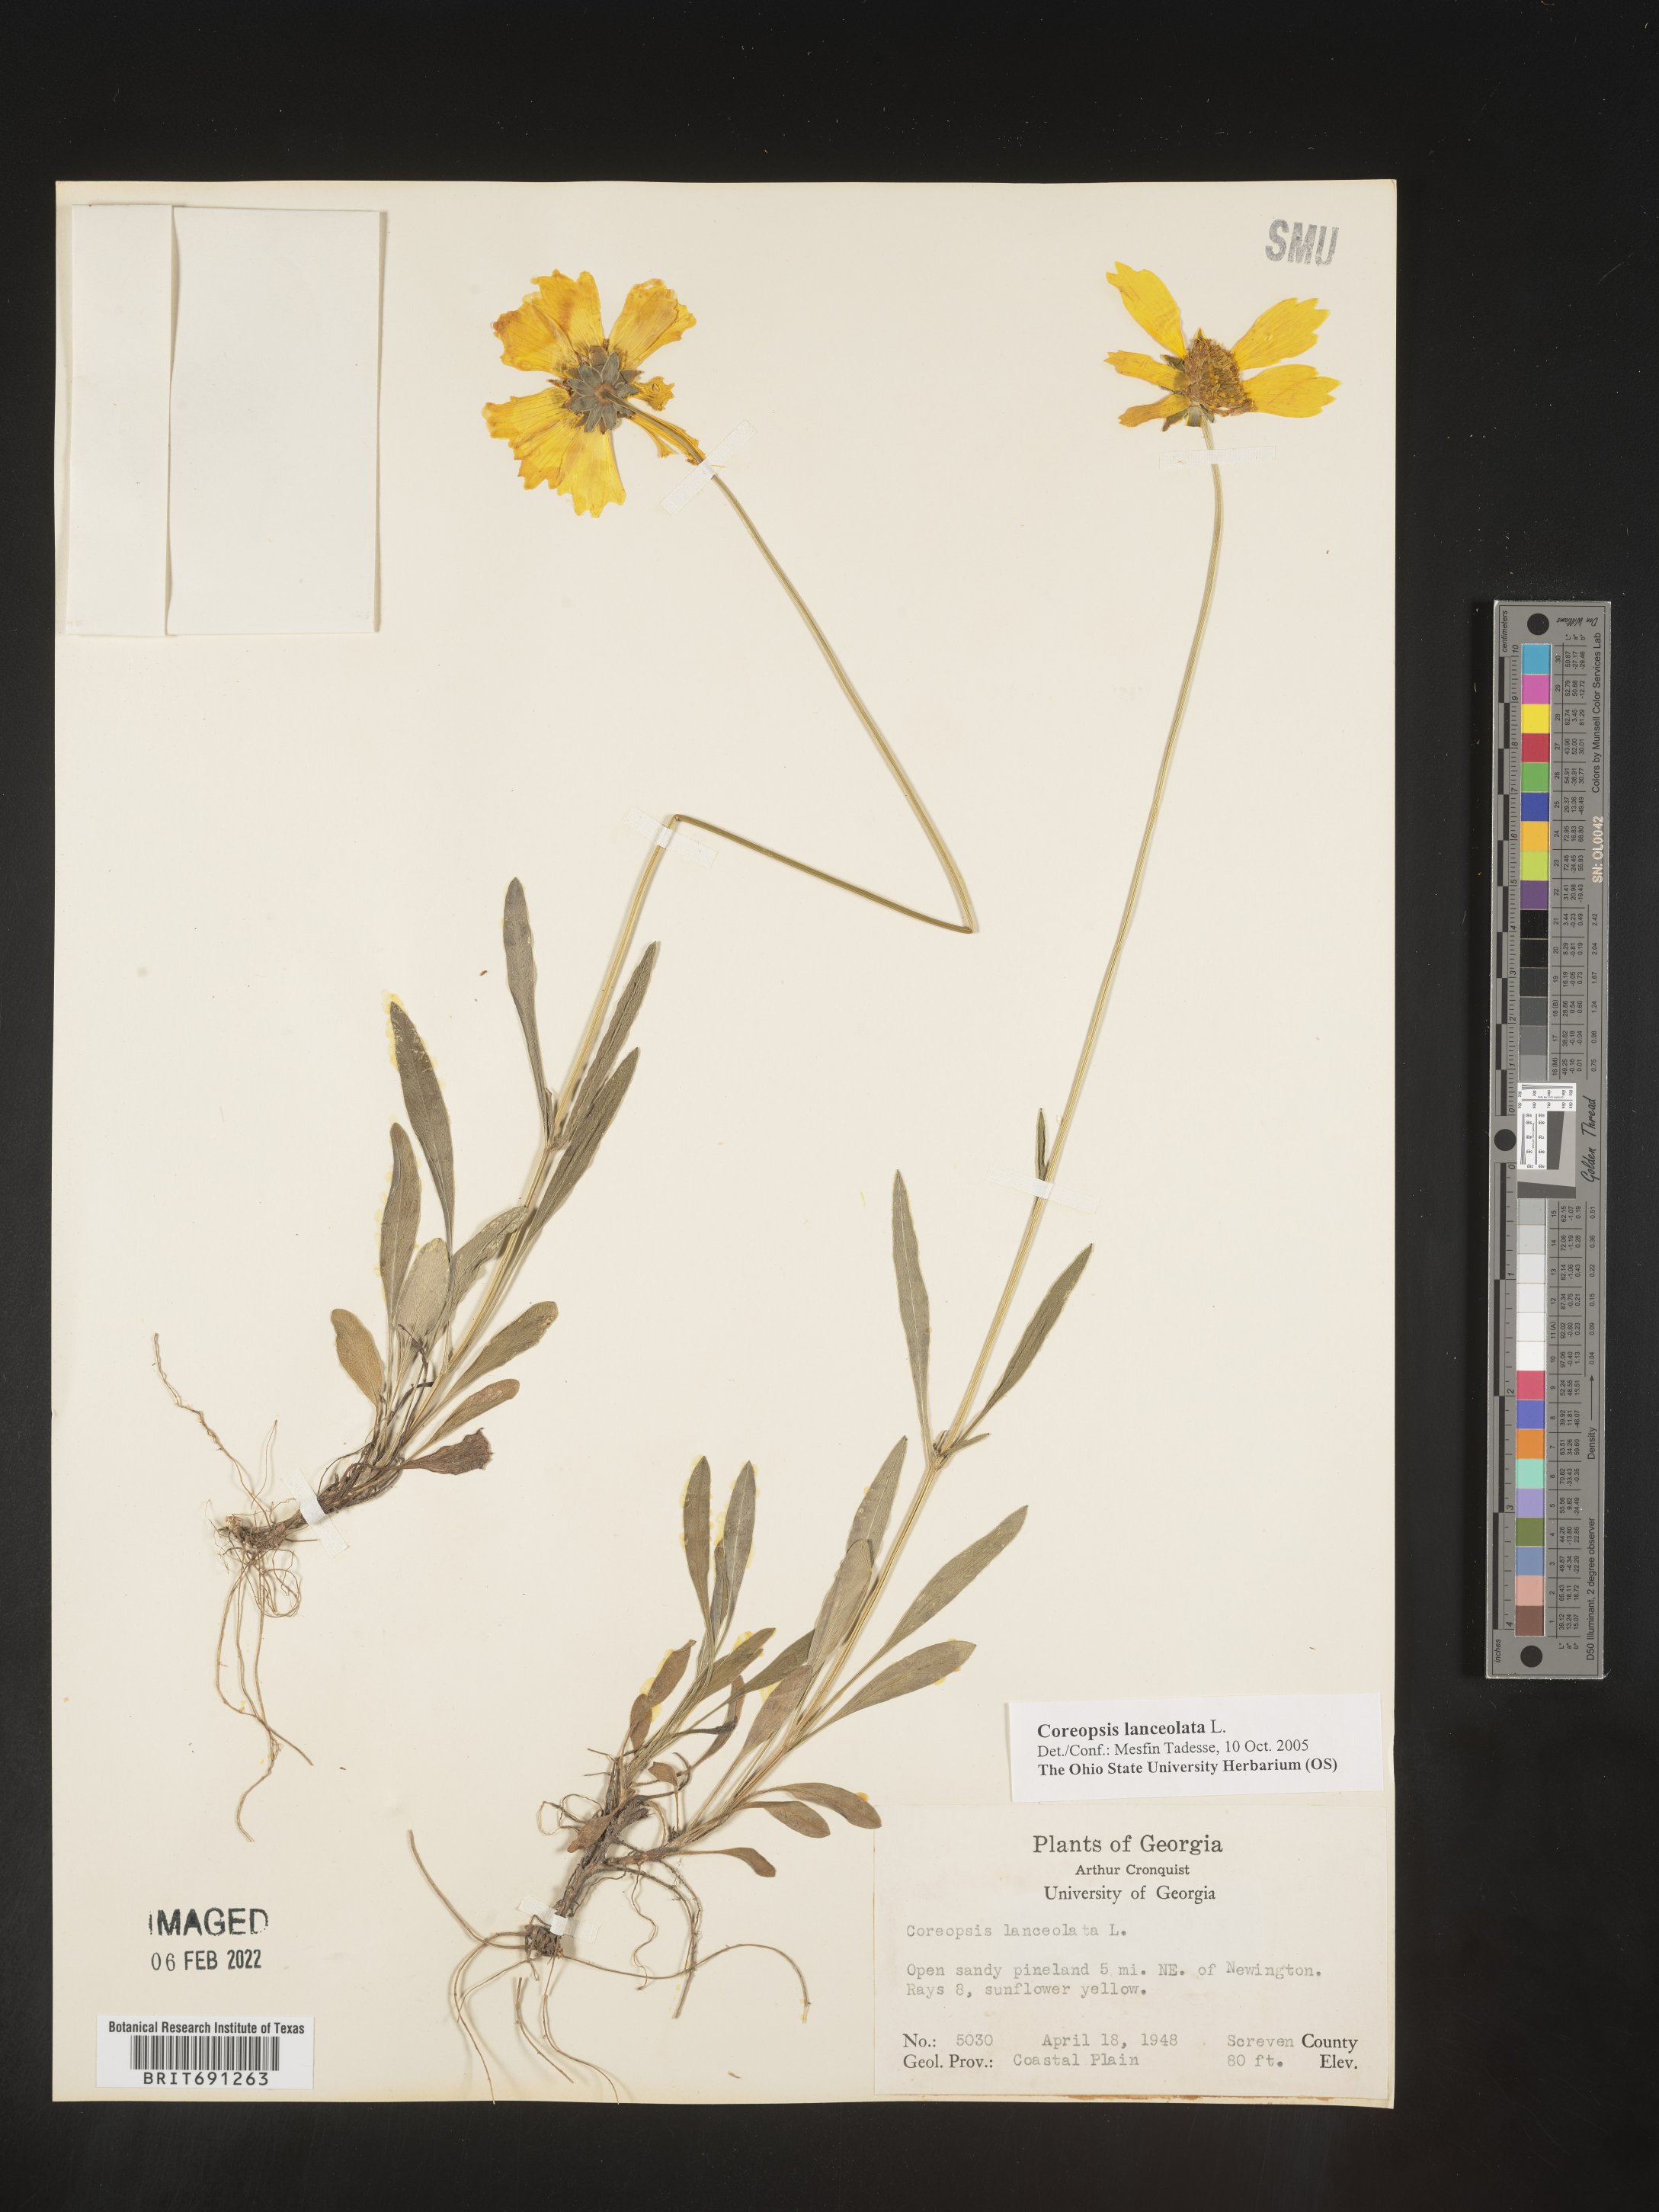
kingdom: Plantae
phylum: Tracheophyta
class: Magnoliopsida
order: Asterales
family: Asteraceae
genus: Coreopsis
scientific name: Coreopsis lanceolata
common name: Garden coreopsis
